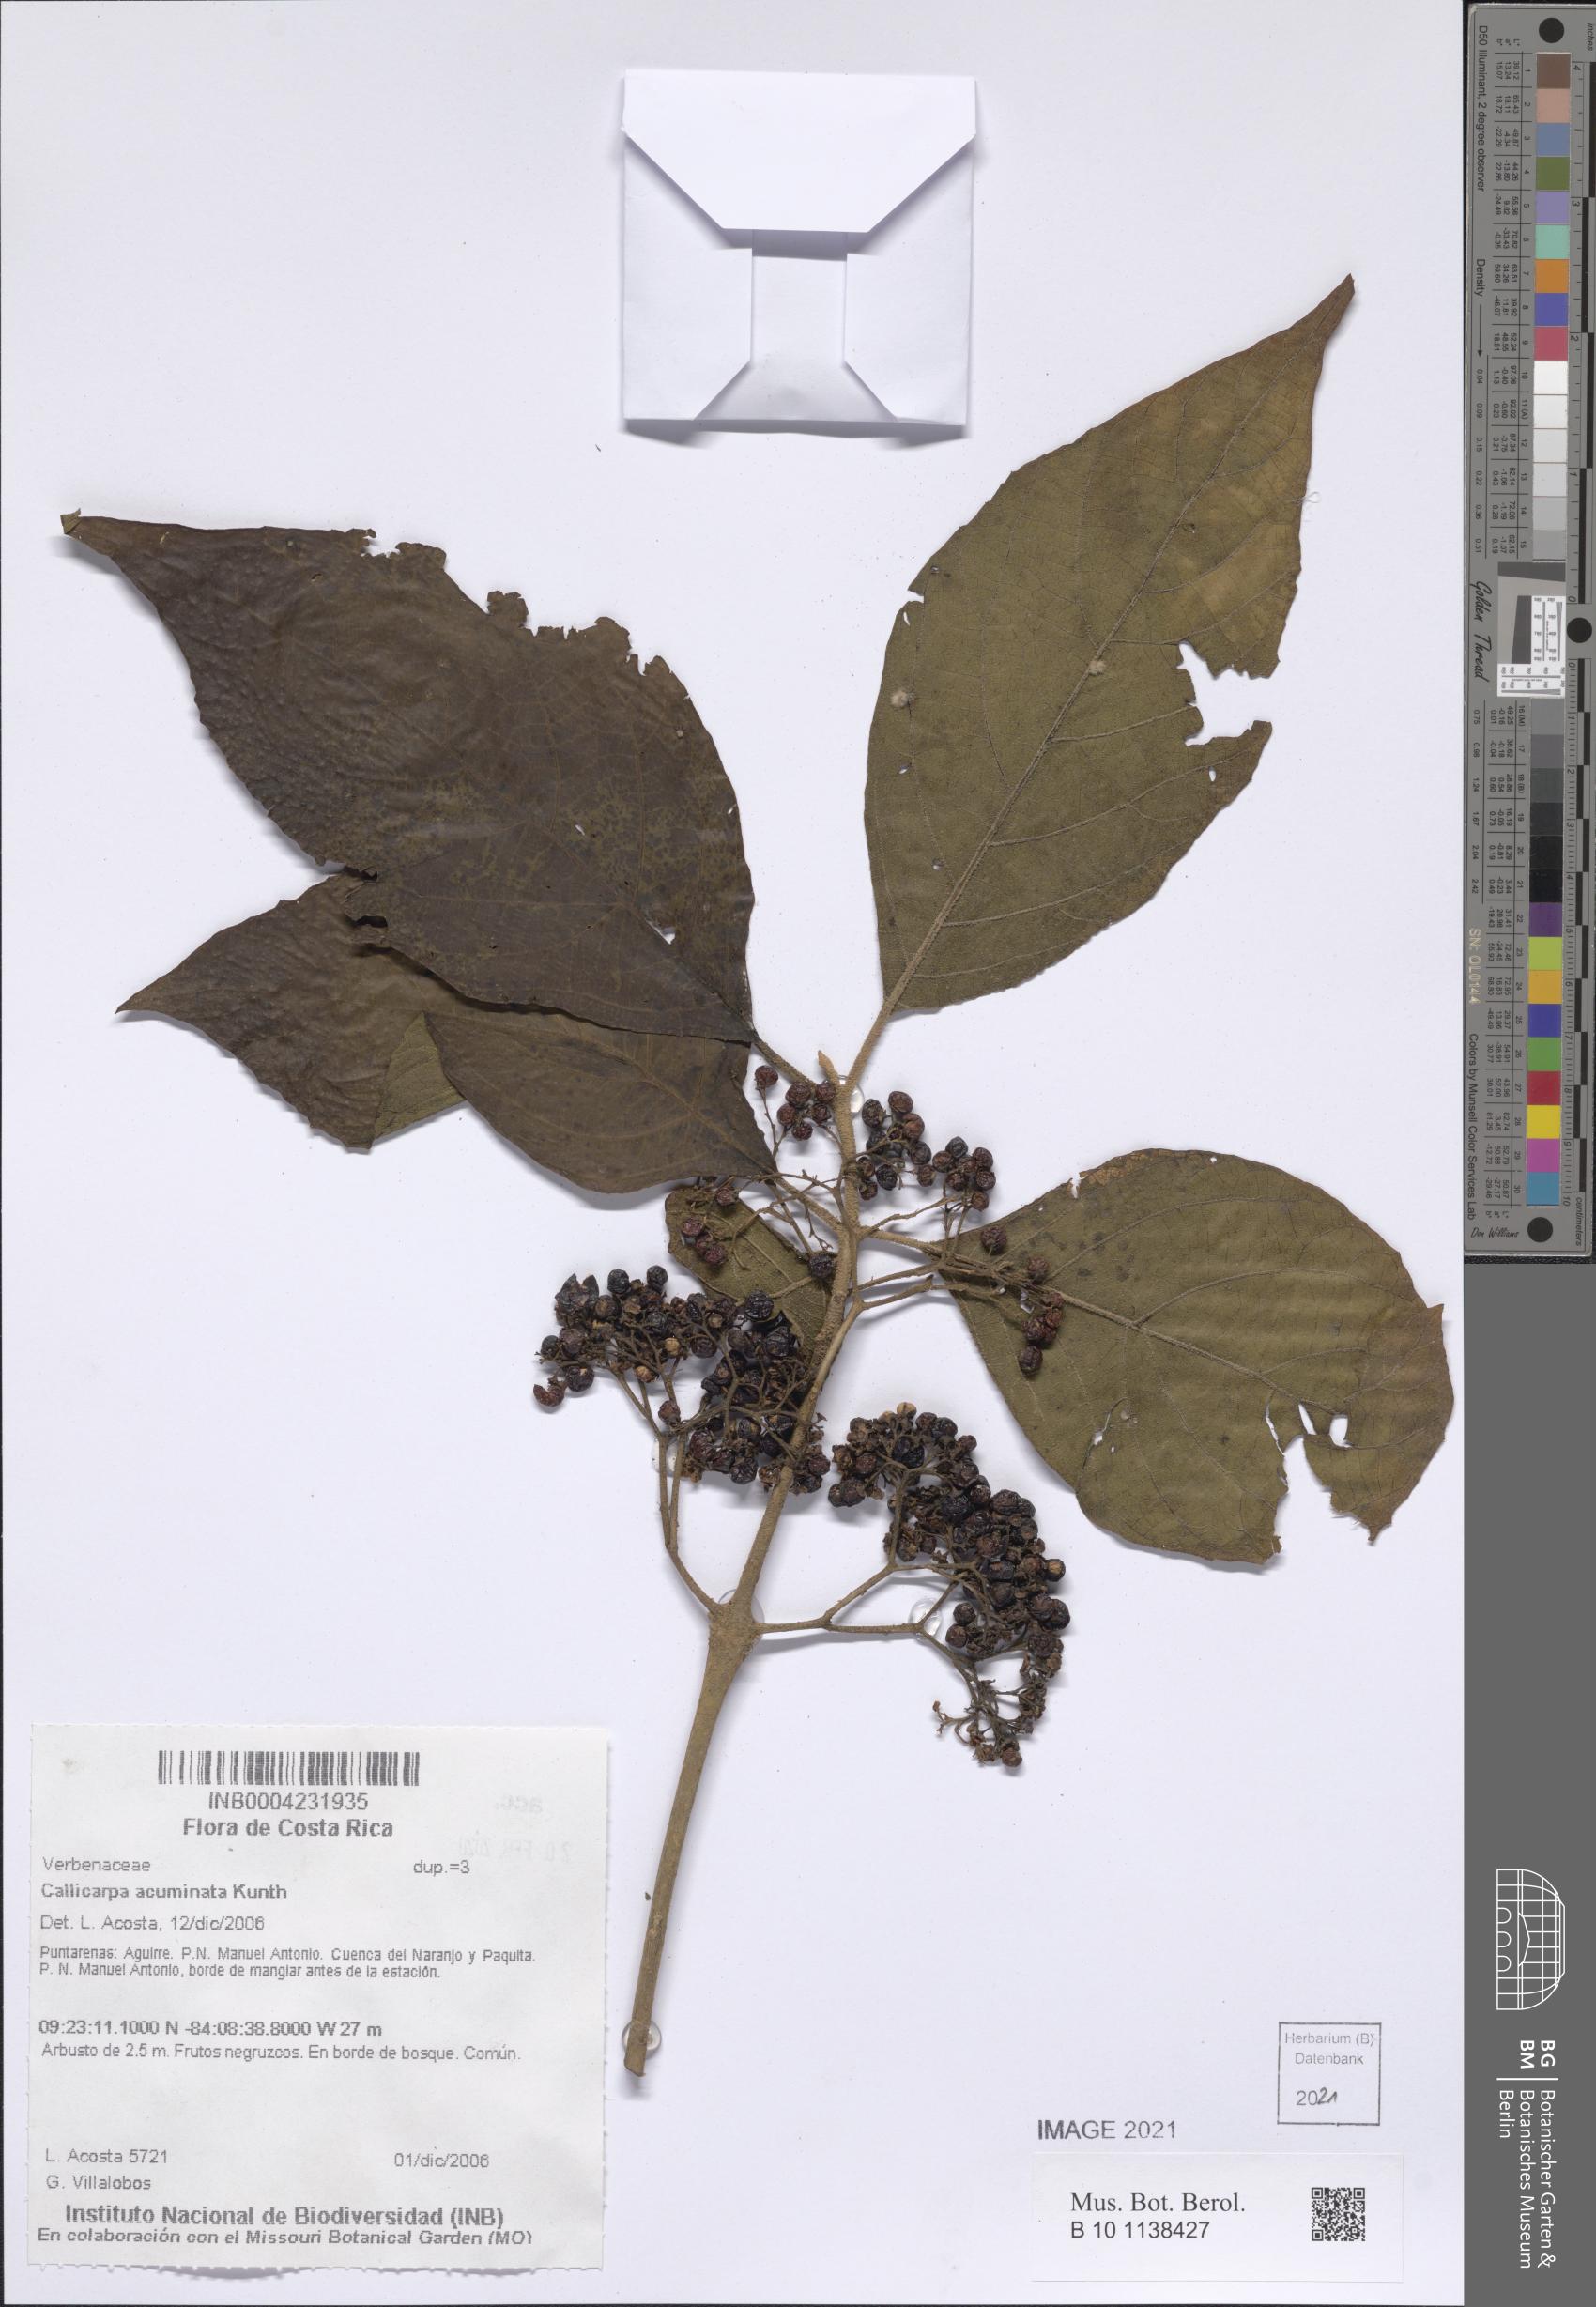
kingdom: Plantae
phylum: Tracheophyta
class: Magnoliopsida
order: Lamiales
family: Lamiaceae
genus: Callicarpa
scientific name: Callicarpa acuminata
